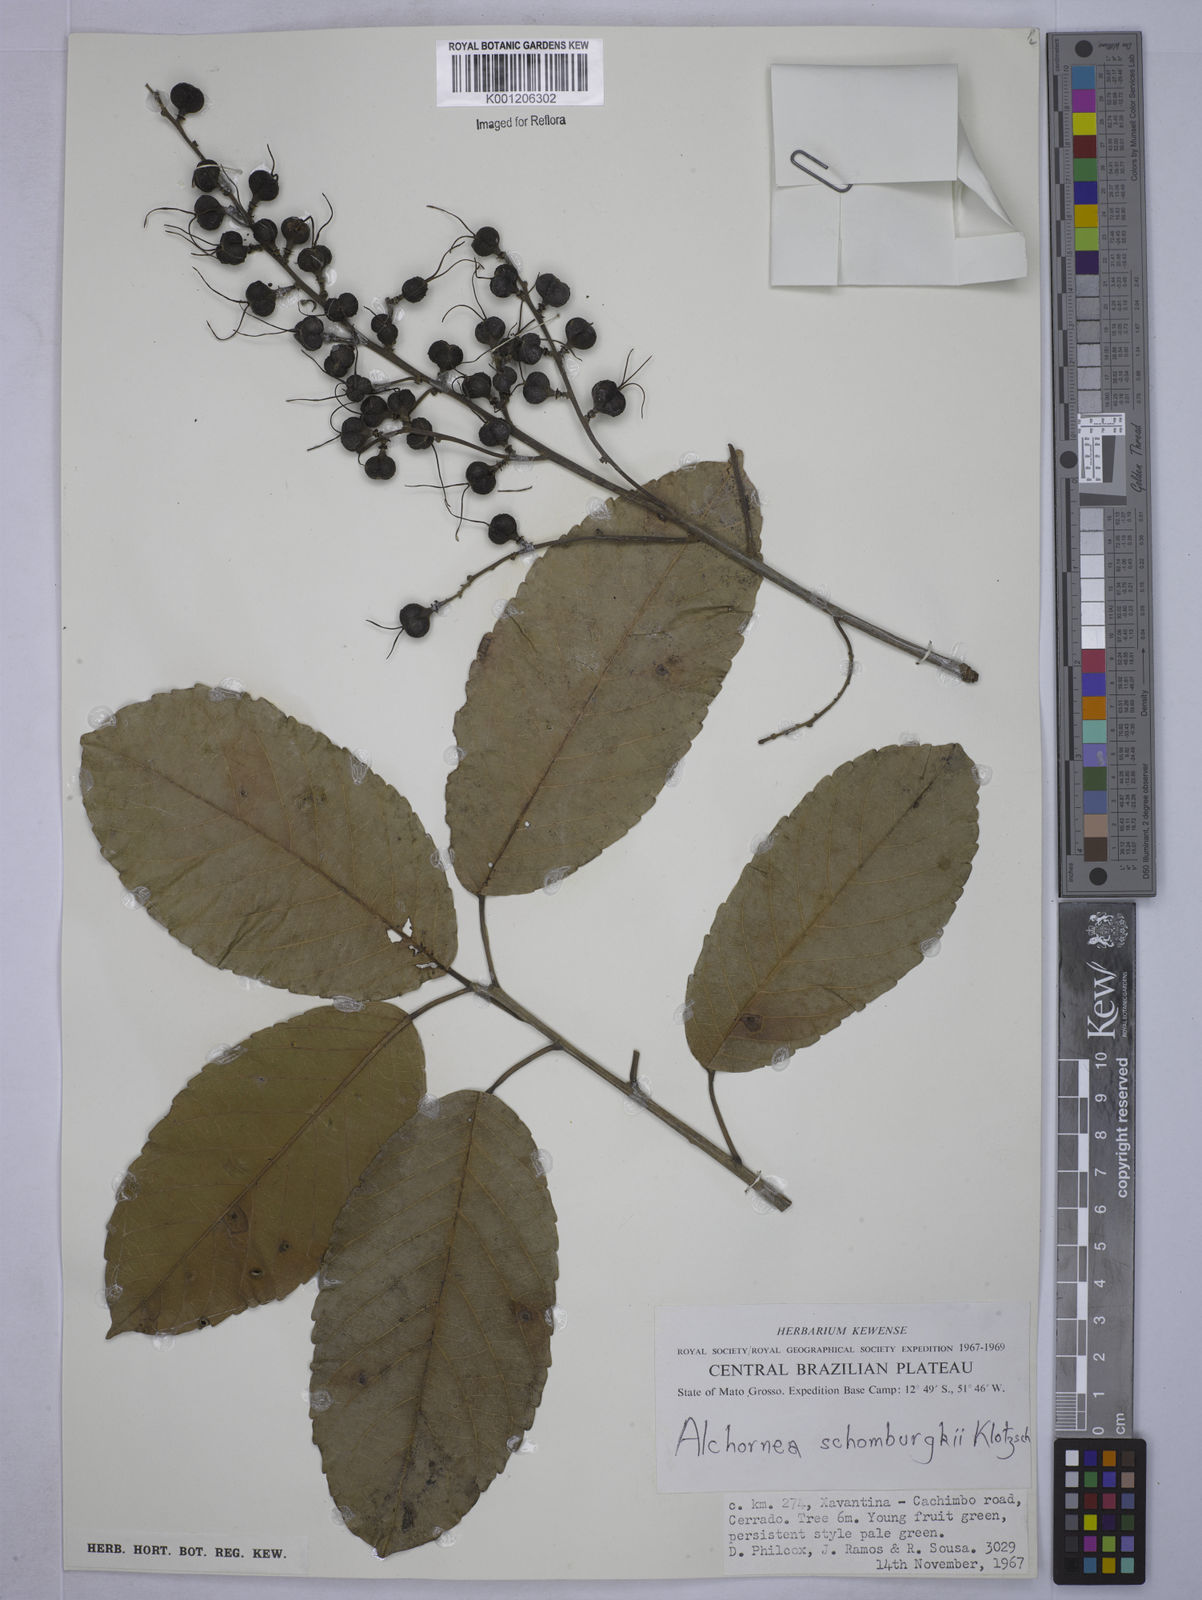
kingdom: Plantae
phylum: Tracheophyta
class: Magnoliopsida
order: Malpighiales
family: Euphorbiaceae
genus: Alchornea
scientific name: Alchornea discolor
